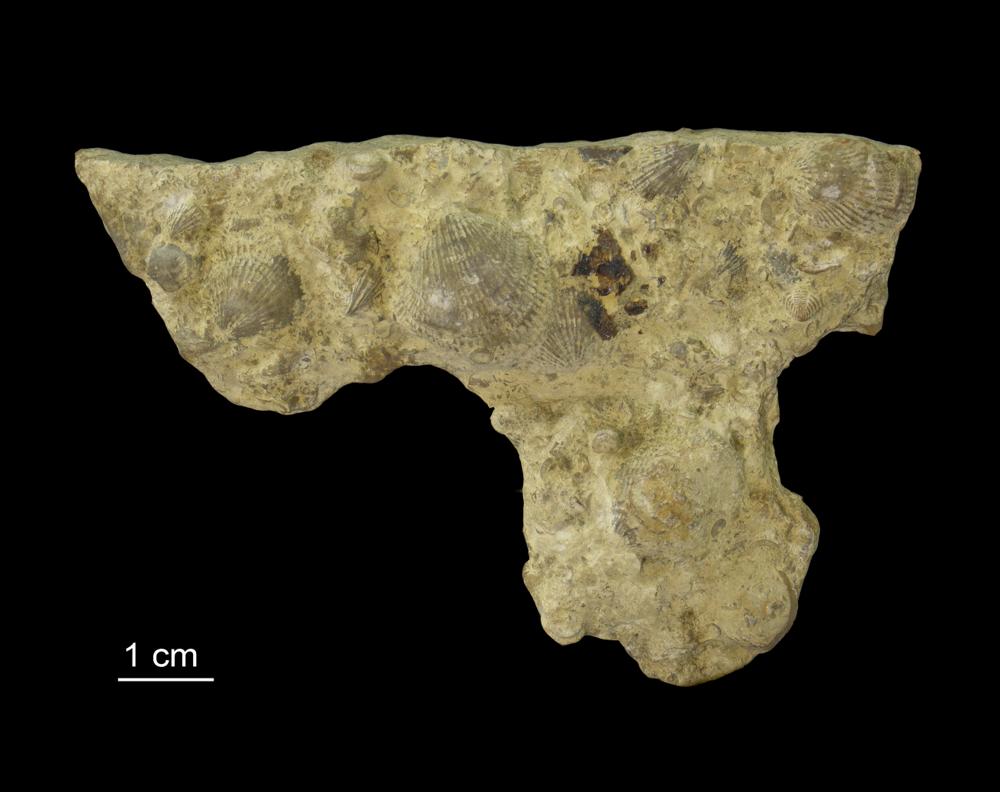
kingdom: Animalia
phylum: Brachiopoda
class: Rhynchonellata
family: Atrypidae
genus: Atrypa
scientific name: Atrypa reticularis
